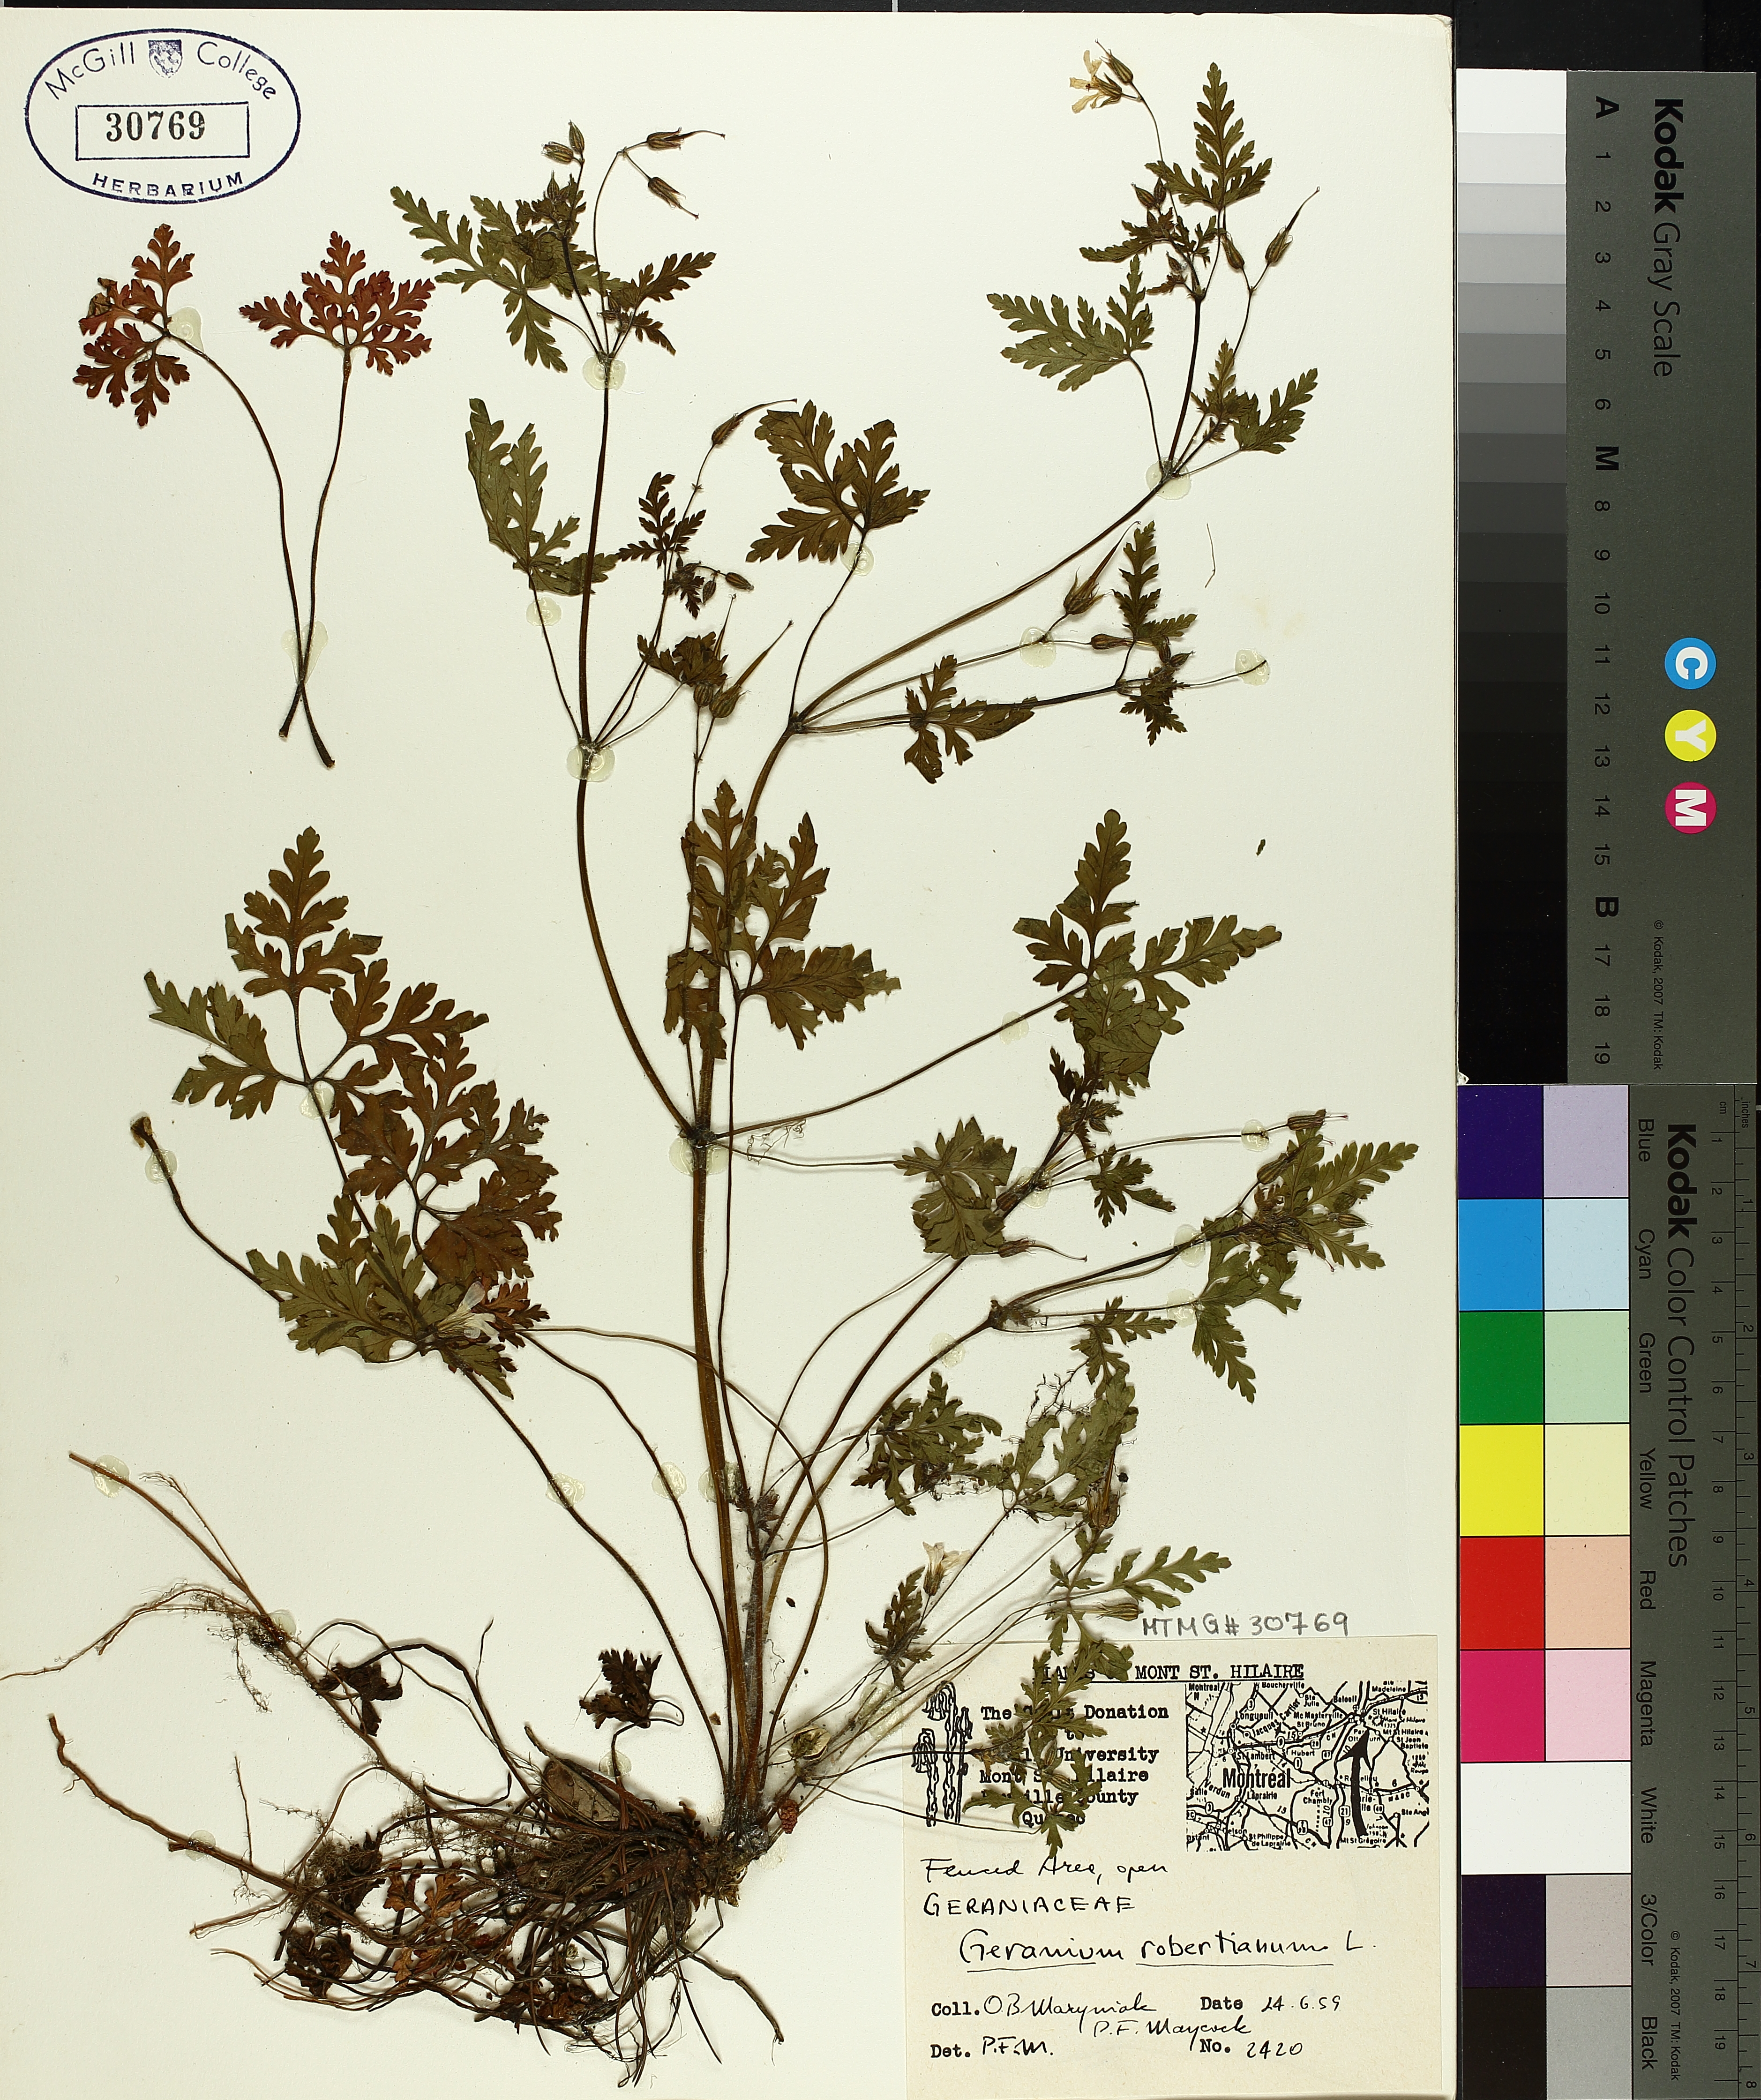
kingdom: Plantae
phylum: Tracheophyta
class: Magnoliopsida
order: Geraniales
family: Geraniaceae
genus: Geranium
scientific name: Geranium robertianum
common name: Herb-robert
